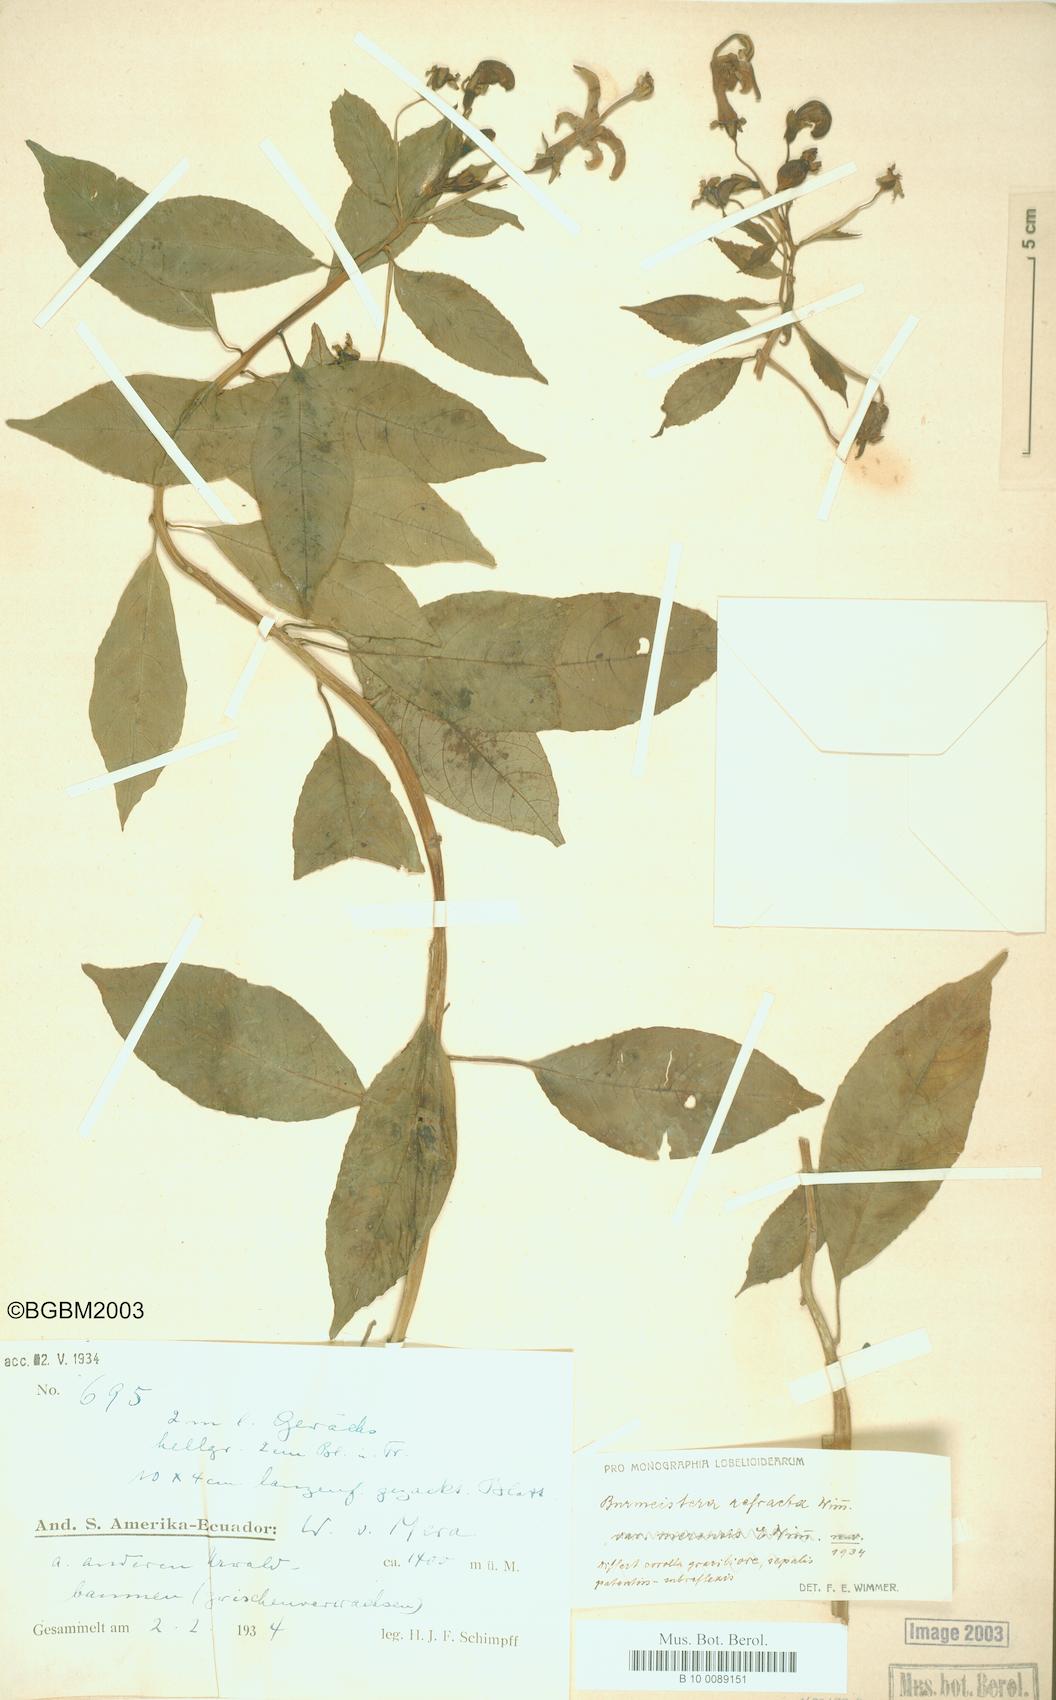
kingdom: Plantae
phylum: Tracheophyta
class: Magnoliopsida
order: Asterales
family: Campanulaceae
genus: Burmeistera
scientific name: Burmeistera refracta
